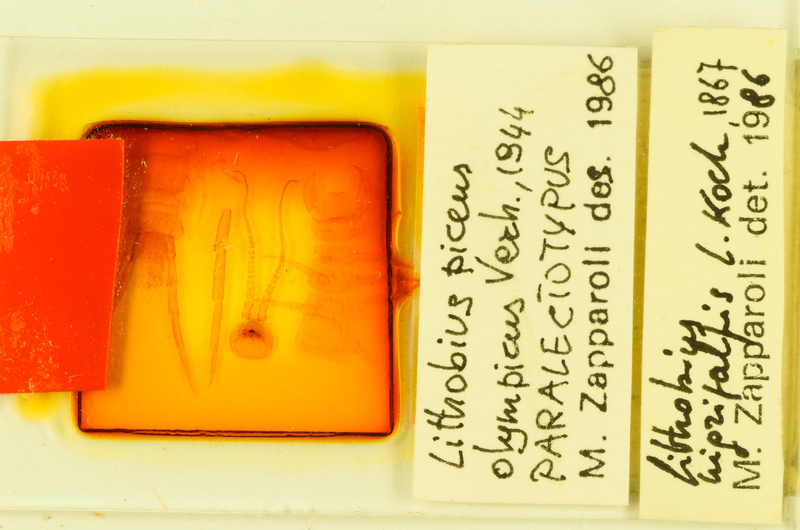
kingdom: Animalia
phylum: Arthropoda
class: Chilopoda
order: Lithobiomorpha
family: Lithobiidae
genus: Lithobius
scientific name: Lithobius nigripalpis
